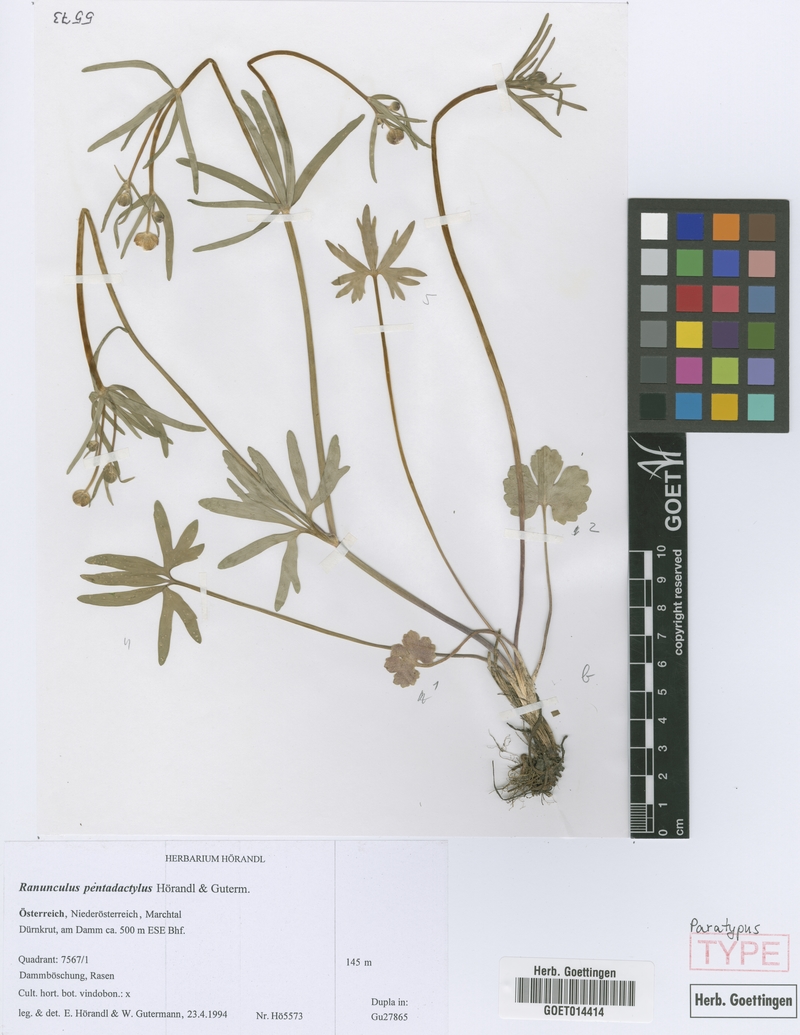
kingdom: Plantae
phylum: Tracheophyta
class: Magnoliopsida
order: Ranunculales
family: Ranunculaceae
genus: Ranunculus
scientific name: Ranunculus pentadactylus
